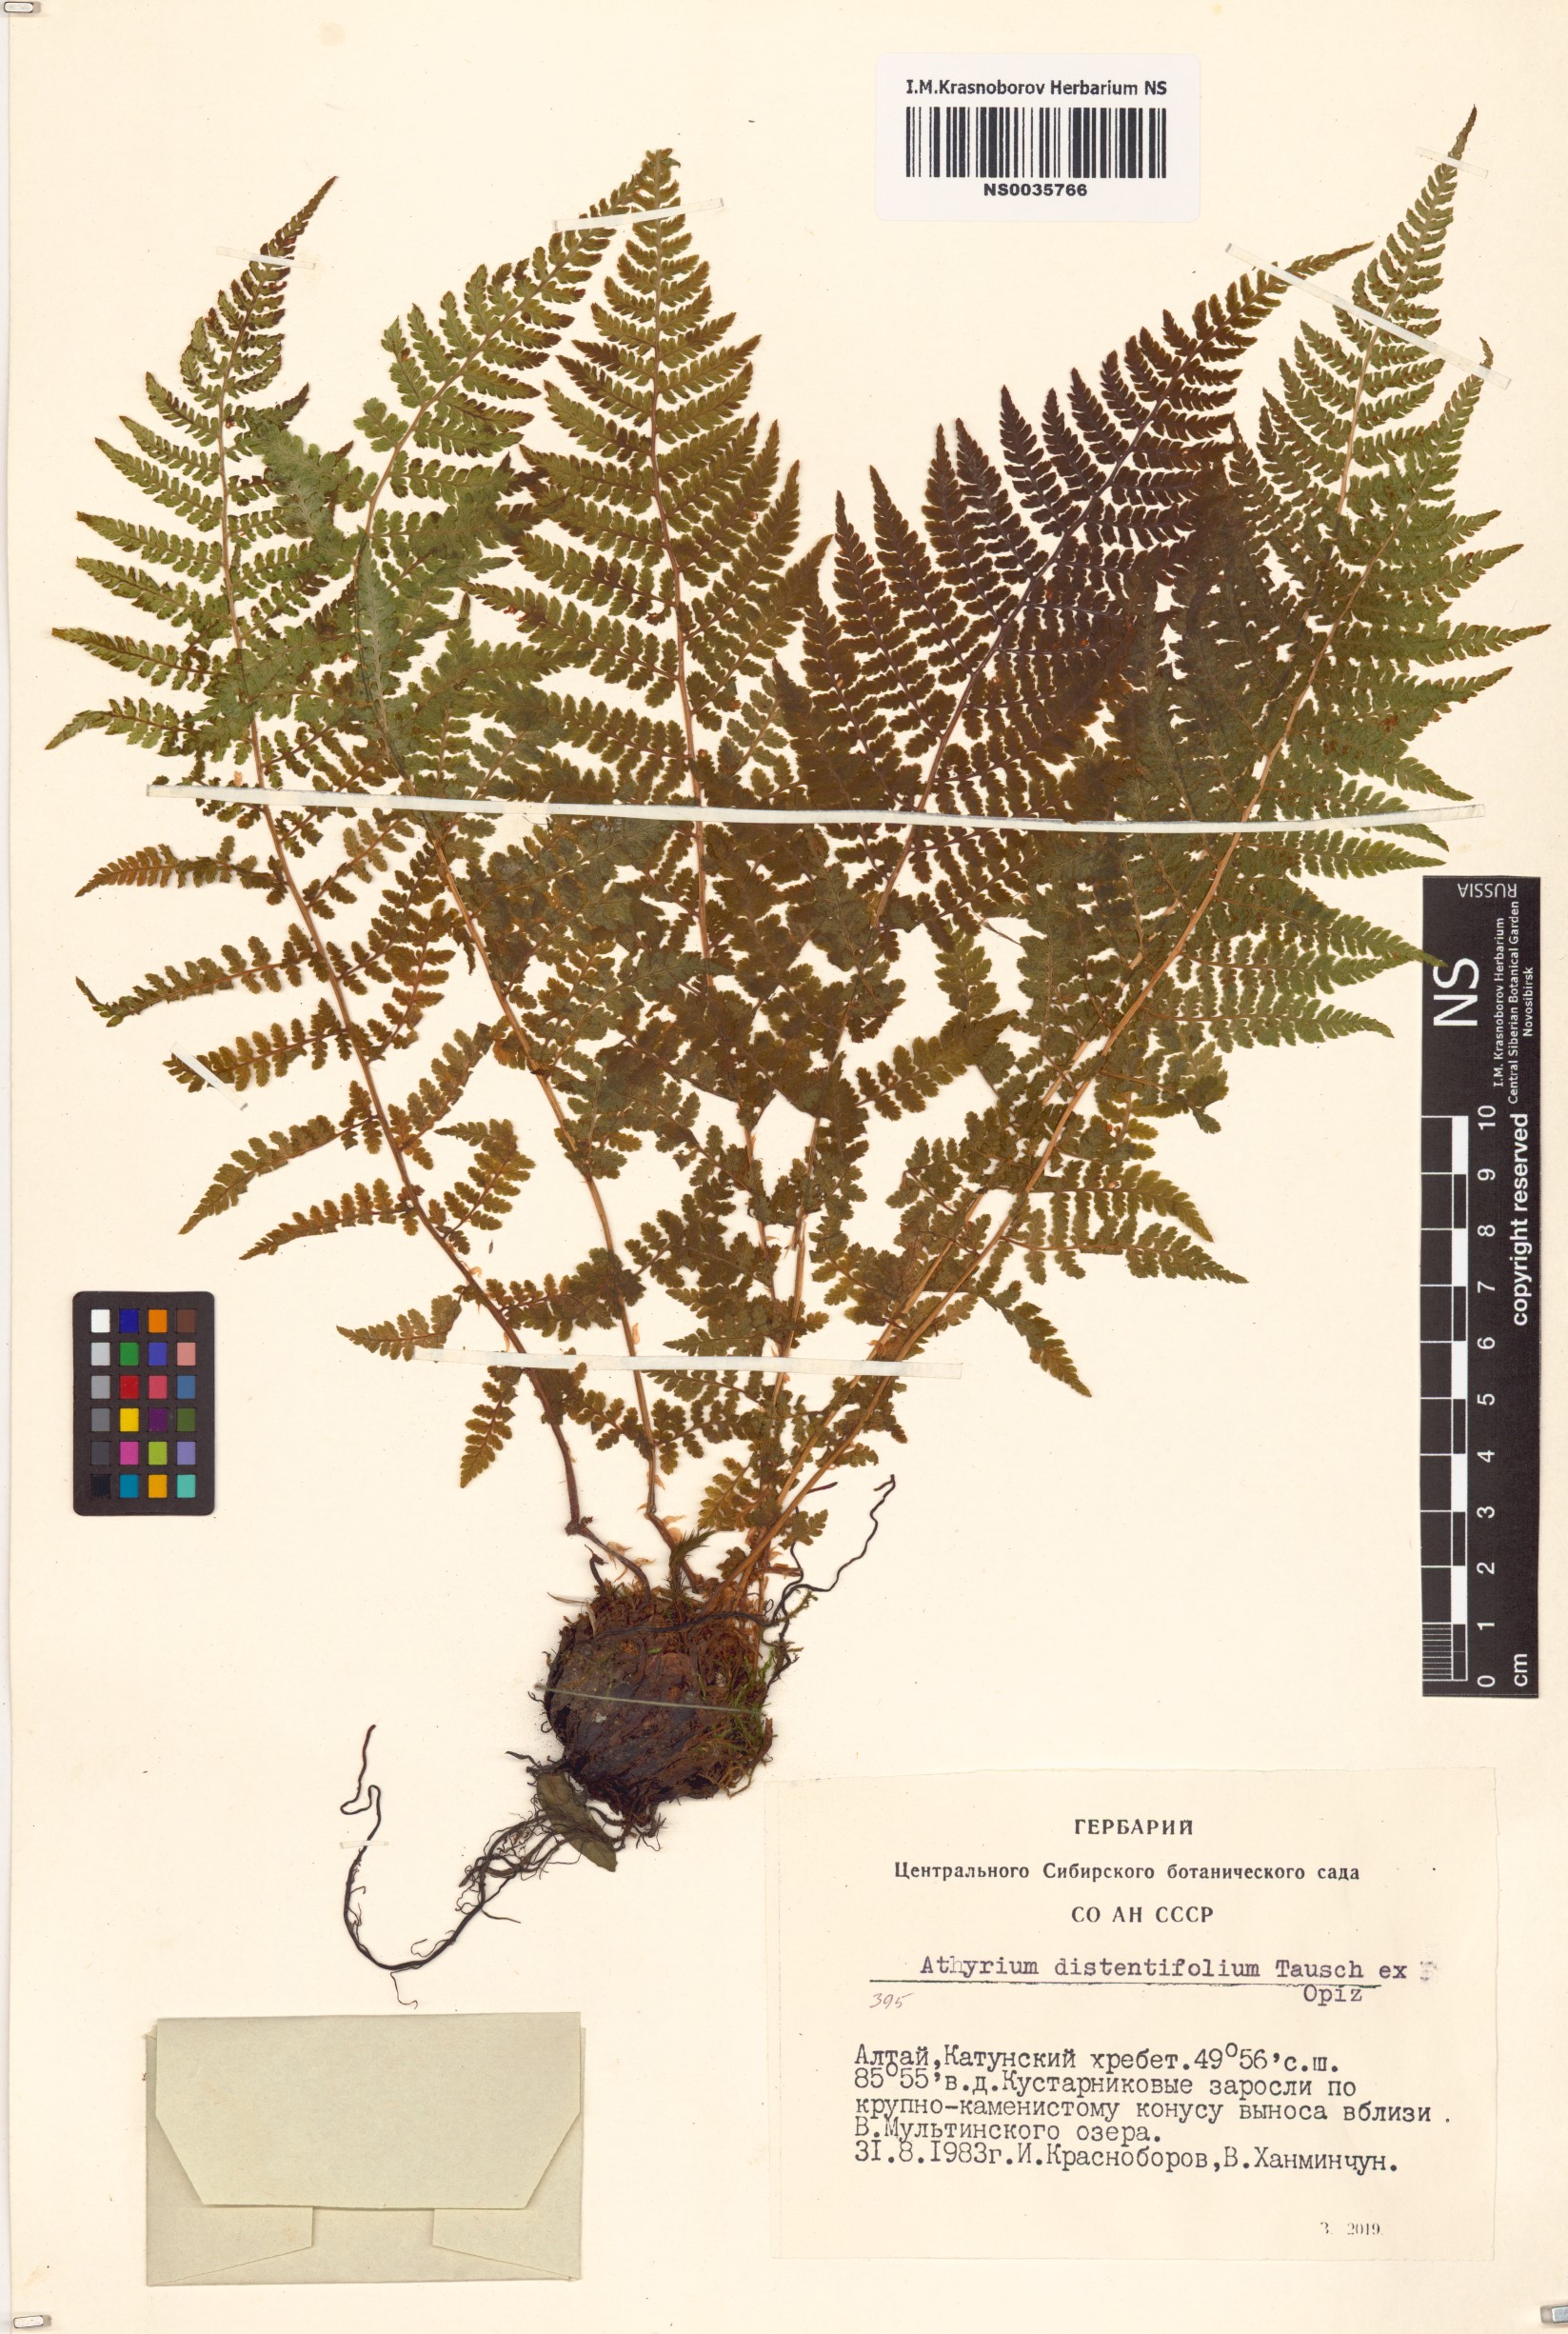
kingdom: Plantae
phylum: Tracheophyta
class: Polypodiopsida
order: Polypodiales
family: Athyriaceae
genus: Pseudathyrium
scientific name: Pseudathyrium alpestre
